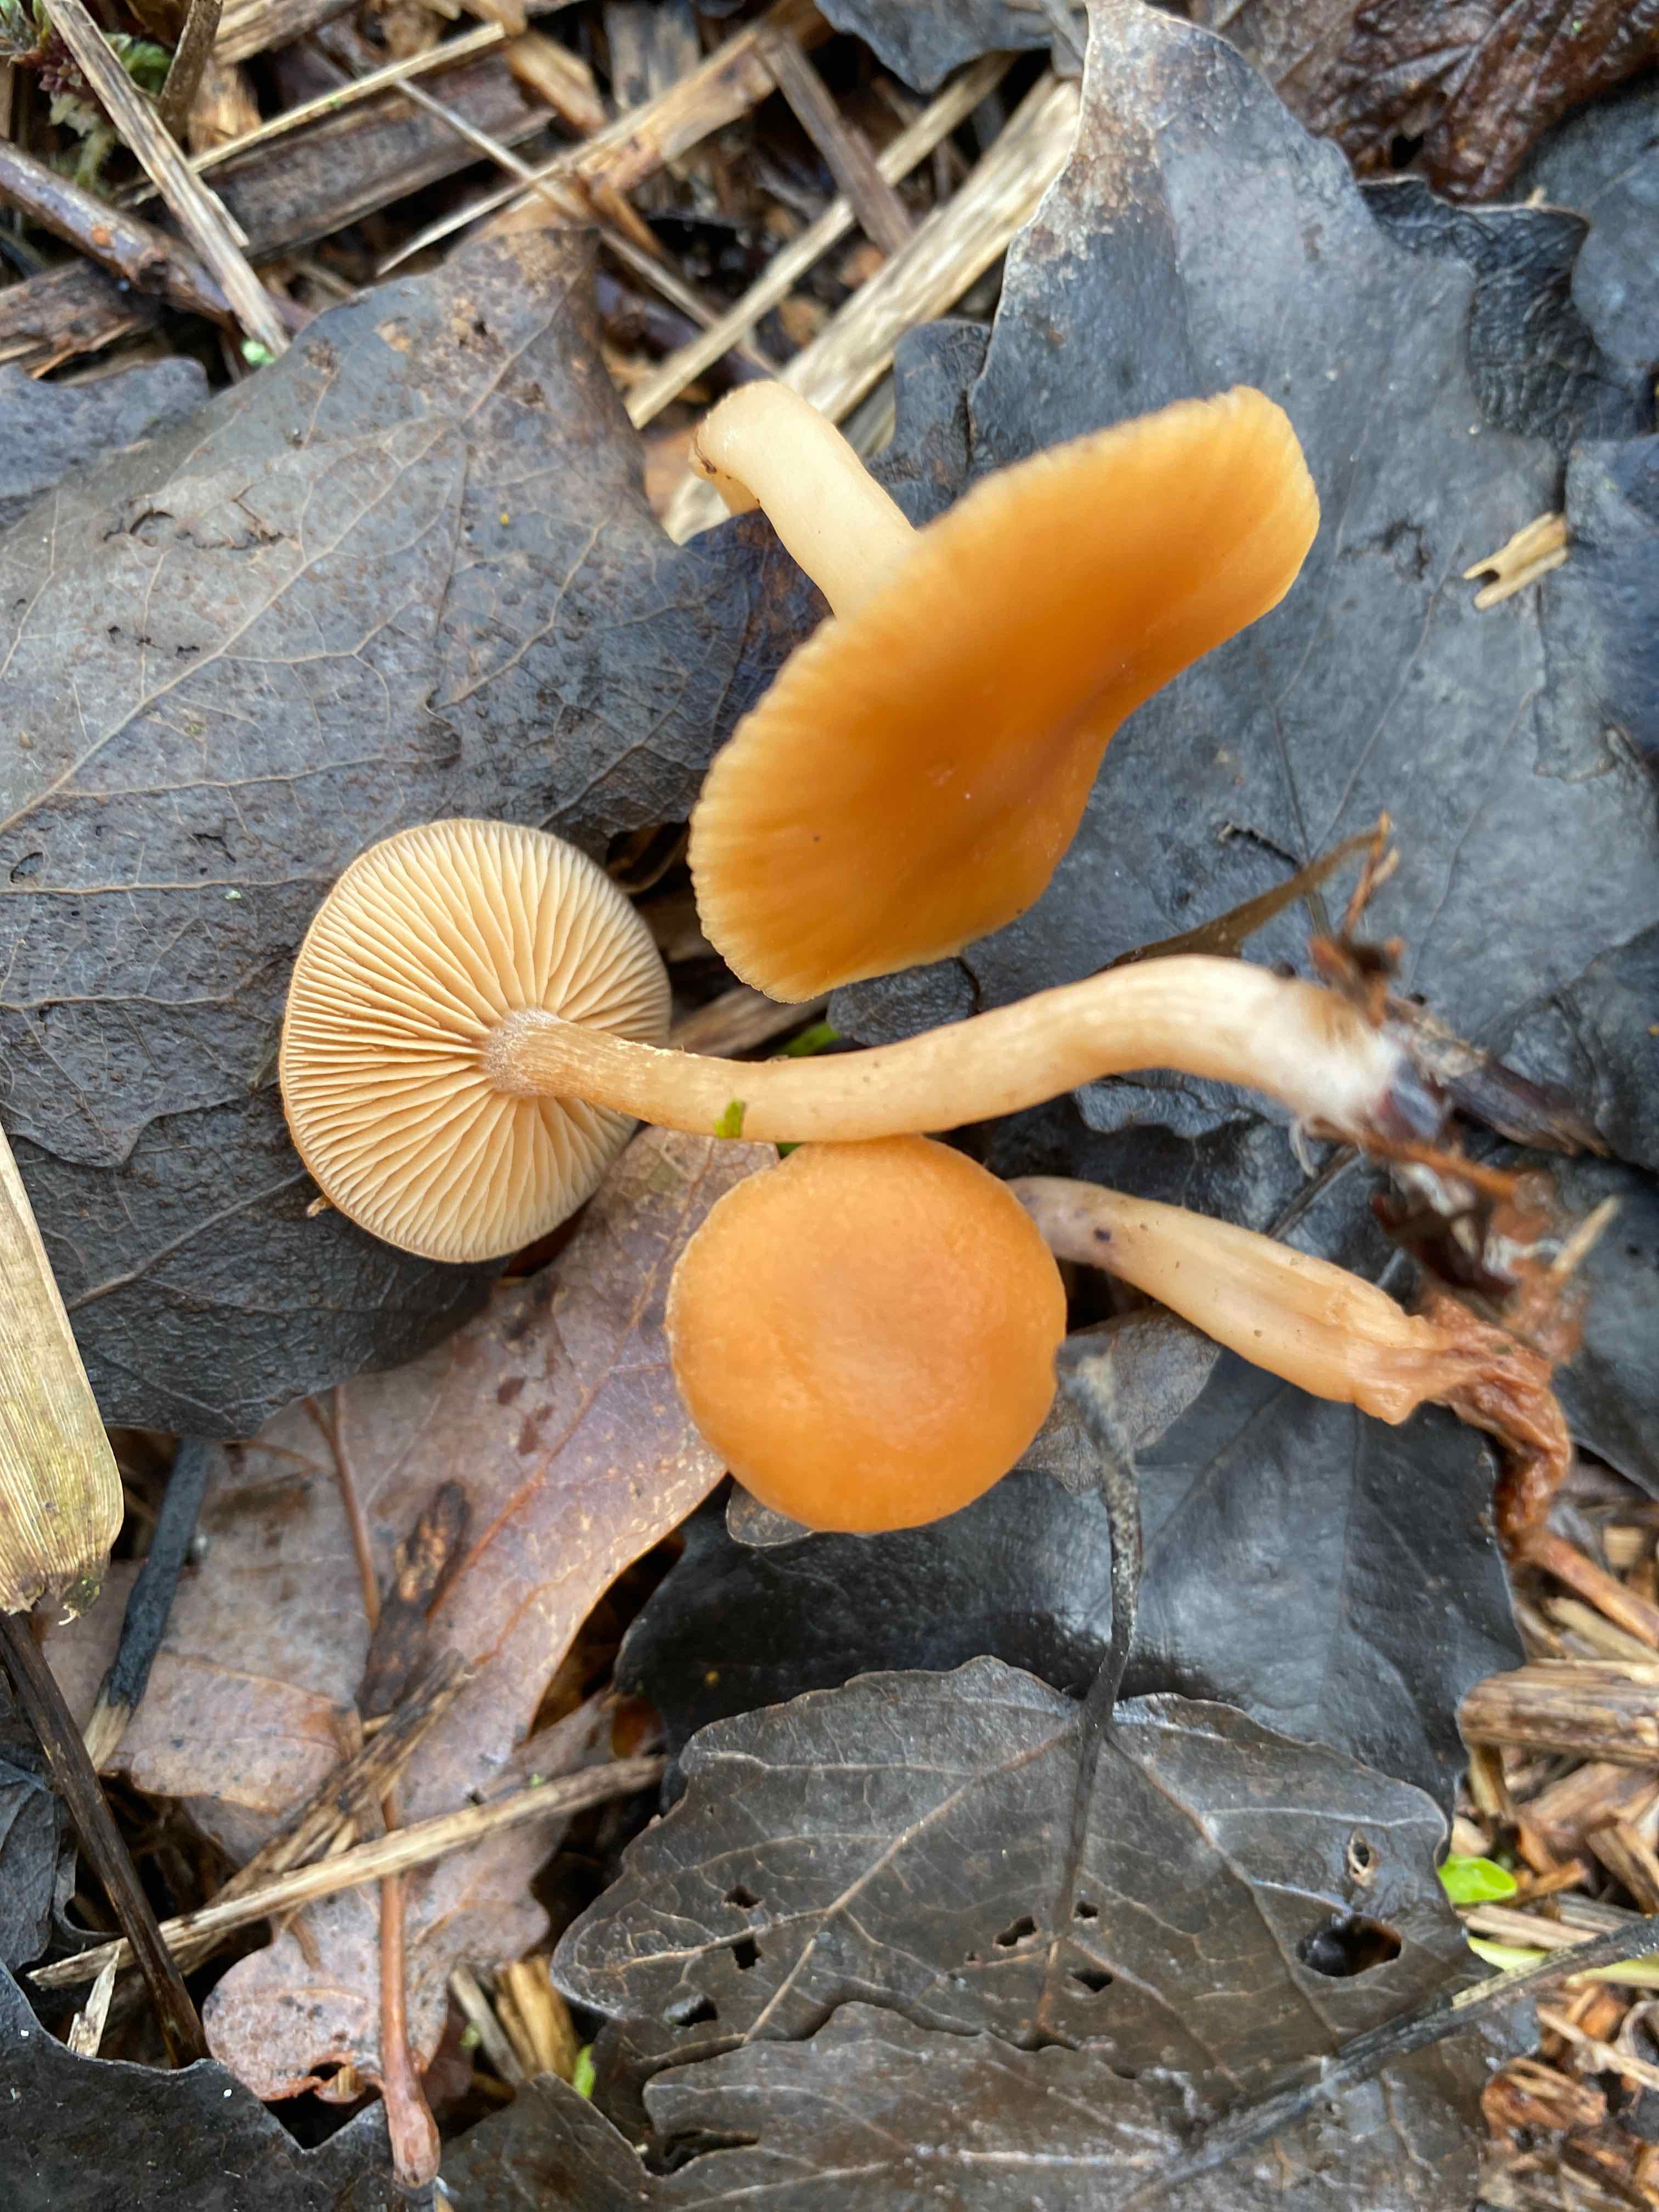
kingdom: Fungi
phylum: Basidiomycota
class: Agaricomycetes
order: Agaricales
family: Tubariaceae
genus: Tubaria
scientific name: Tubaria furfuracea
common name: kliddet fnughat
